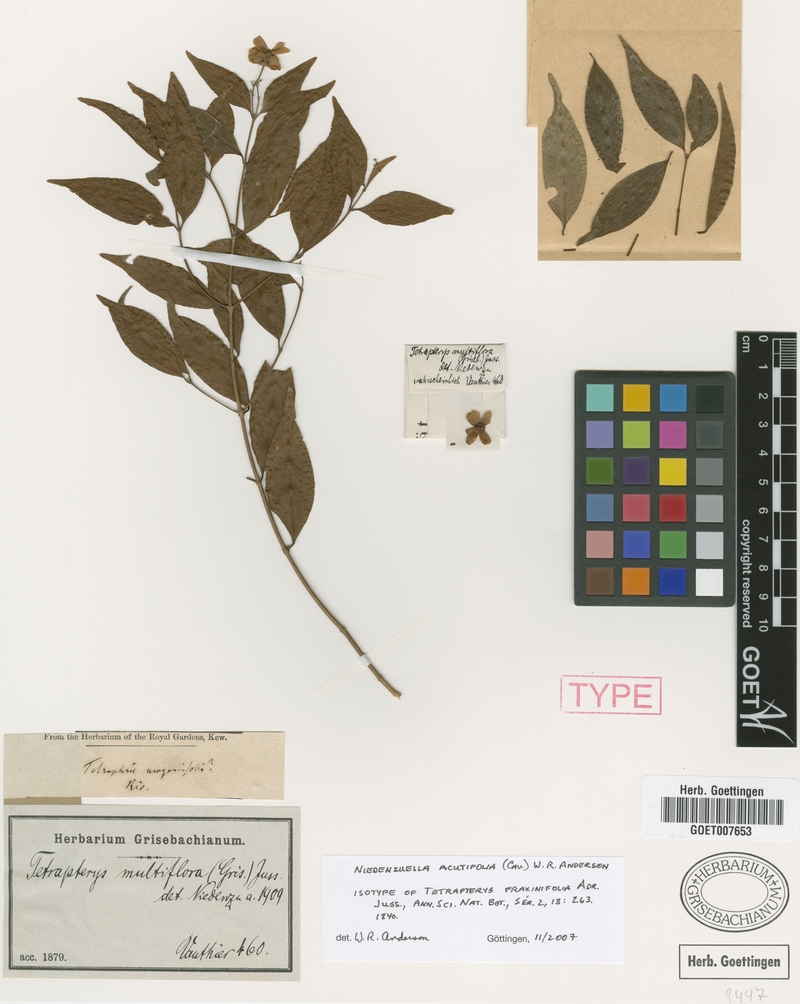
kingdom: Plantae
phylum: Tracheophyta
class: Magnoliopsida
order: Malpighiales
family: Malpighiaceae
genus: Niedenzuella
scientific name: Niedenzuella acutifolia
